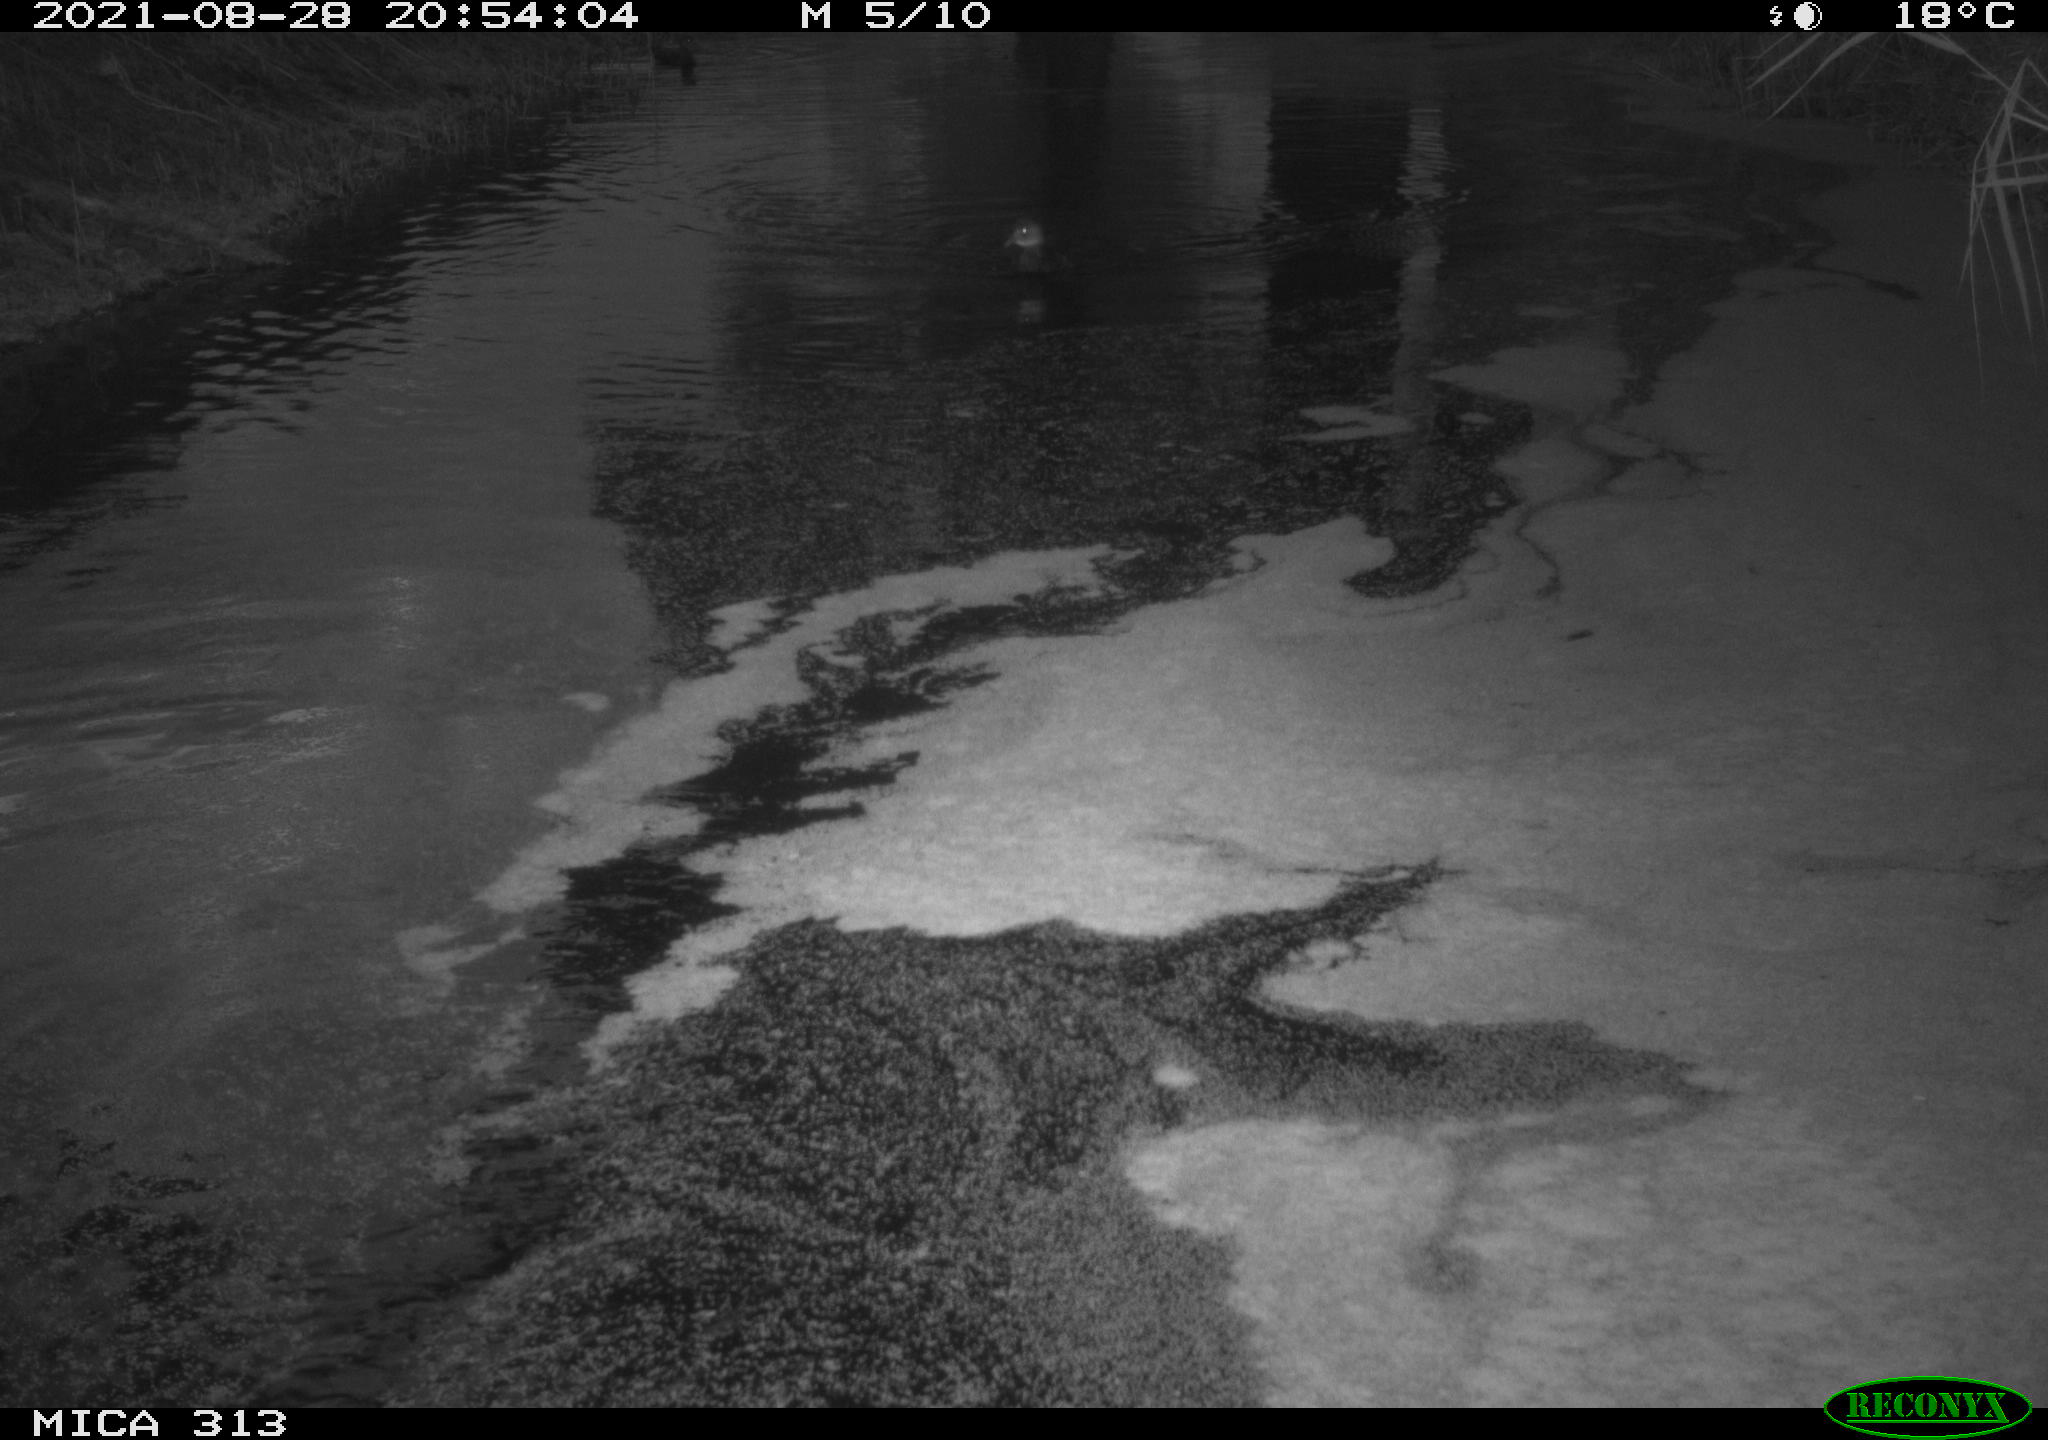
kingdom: Animalia
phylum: Chordata
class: Aves
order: Gruiformes
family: Rallidae
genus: Gallinula
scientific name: Gallinula chloropus
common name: Common moorhen
